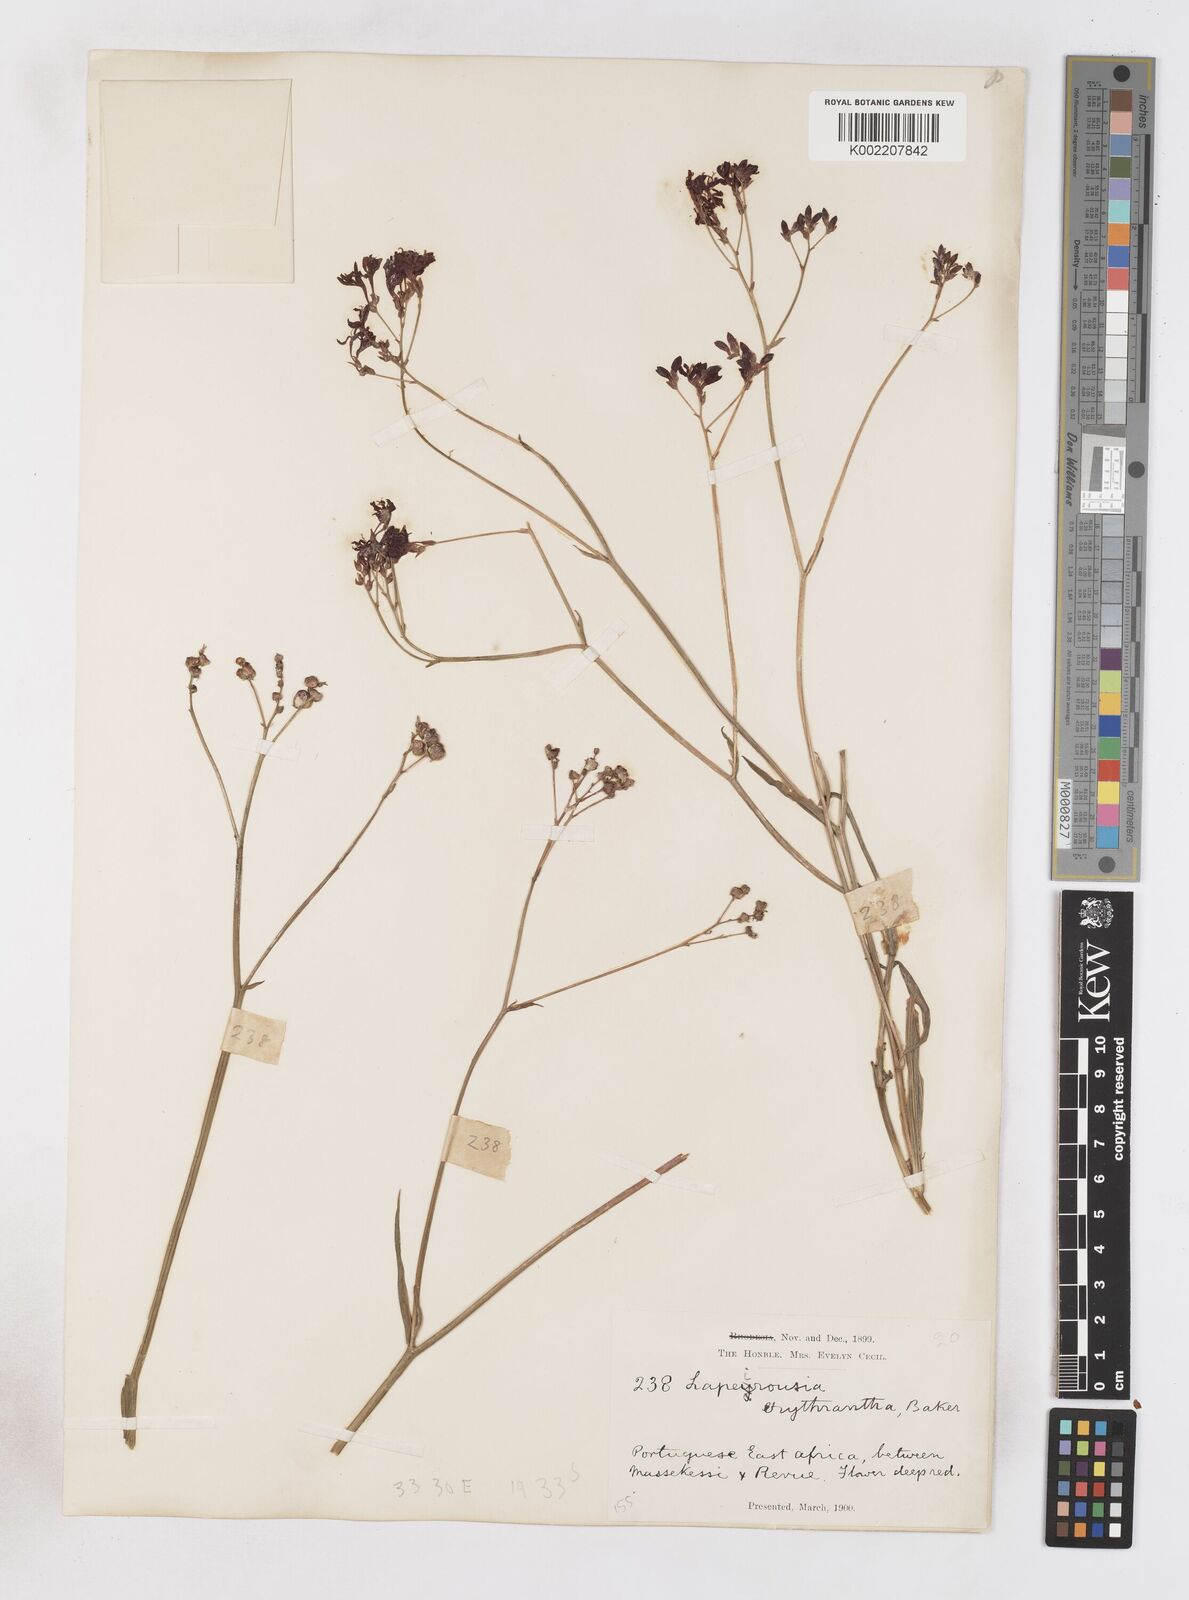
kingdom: Plantae
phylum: Tracheophyta
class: Liliopsida
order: Asparagales
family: Iridaceae
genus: Afrosolen
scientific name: Afrosolen erythranthus
